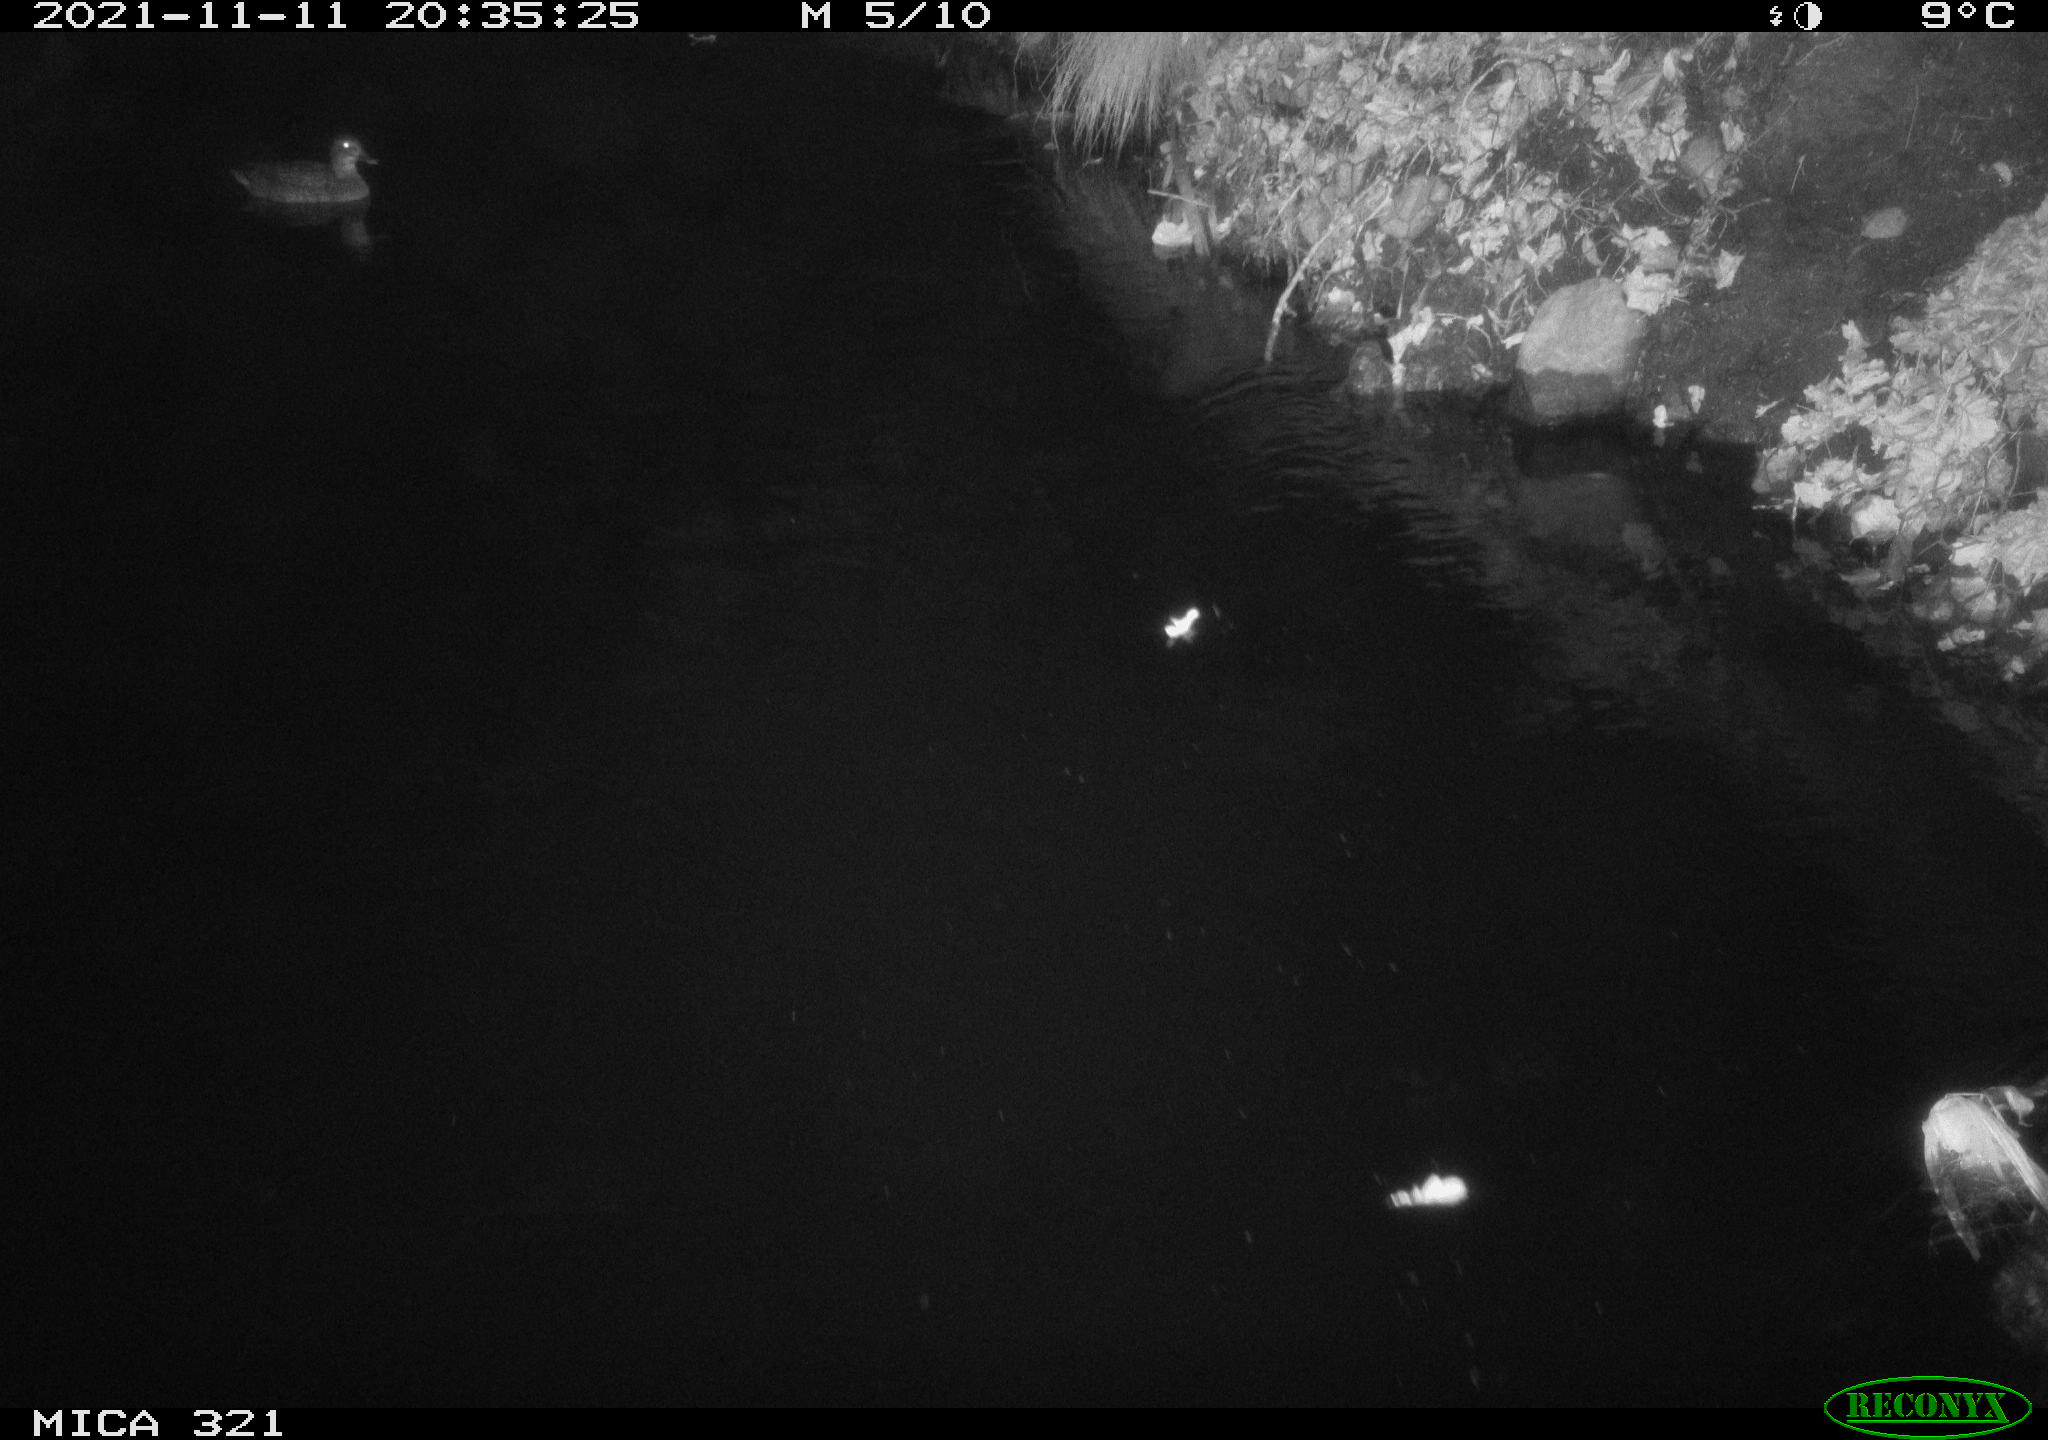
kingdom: Animalia
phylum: Chordata
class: Aves
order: Anseriformes
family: Anatidae
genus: Anas
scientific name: Anas platyrhynchos
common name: Mallard
